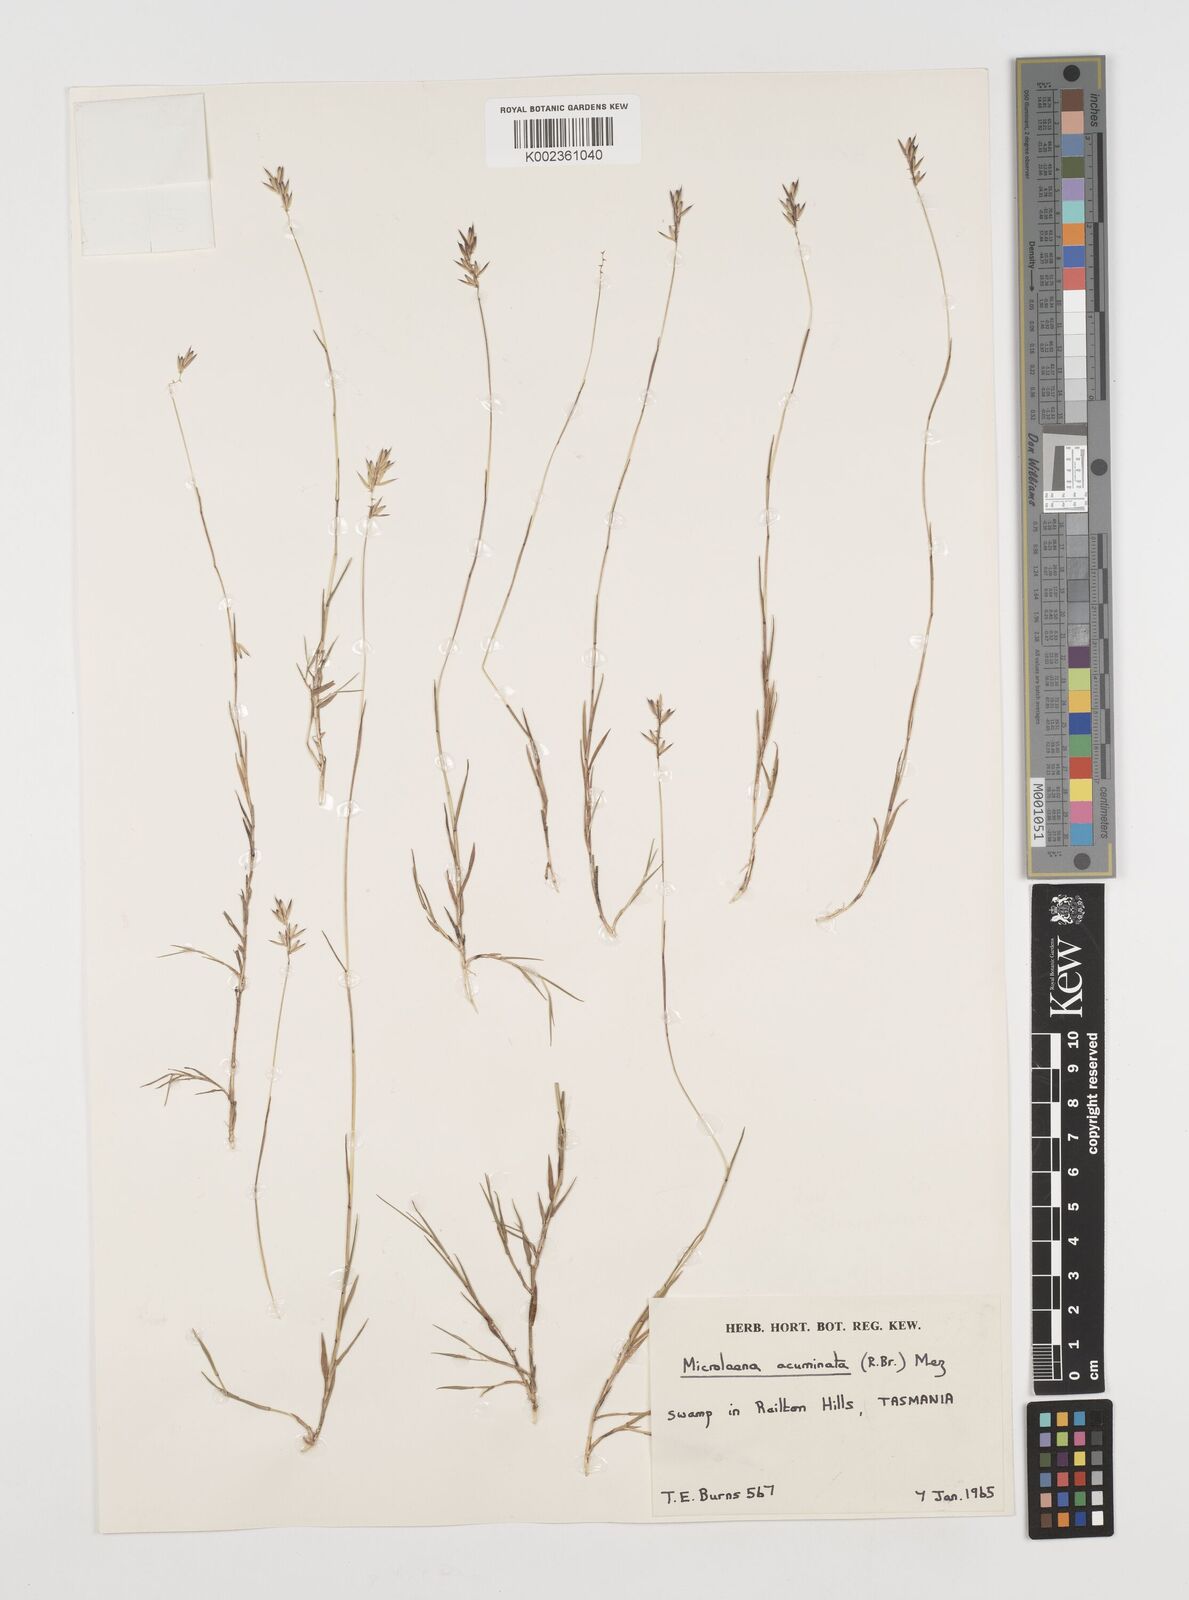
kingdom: Plantae
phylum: Tracheophyta
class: Liliopsida
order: Poales
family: Poaceae
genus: Tetrarrhena
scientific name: Tetrarrhena acuminata
